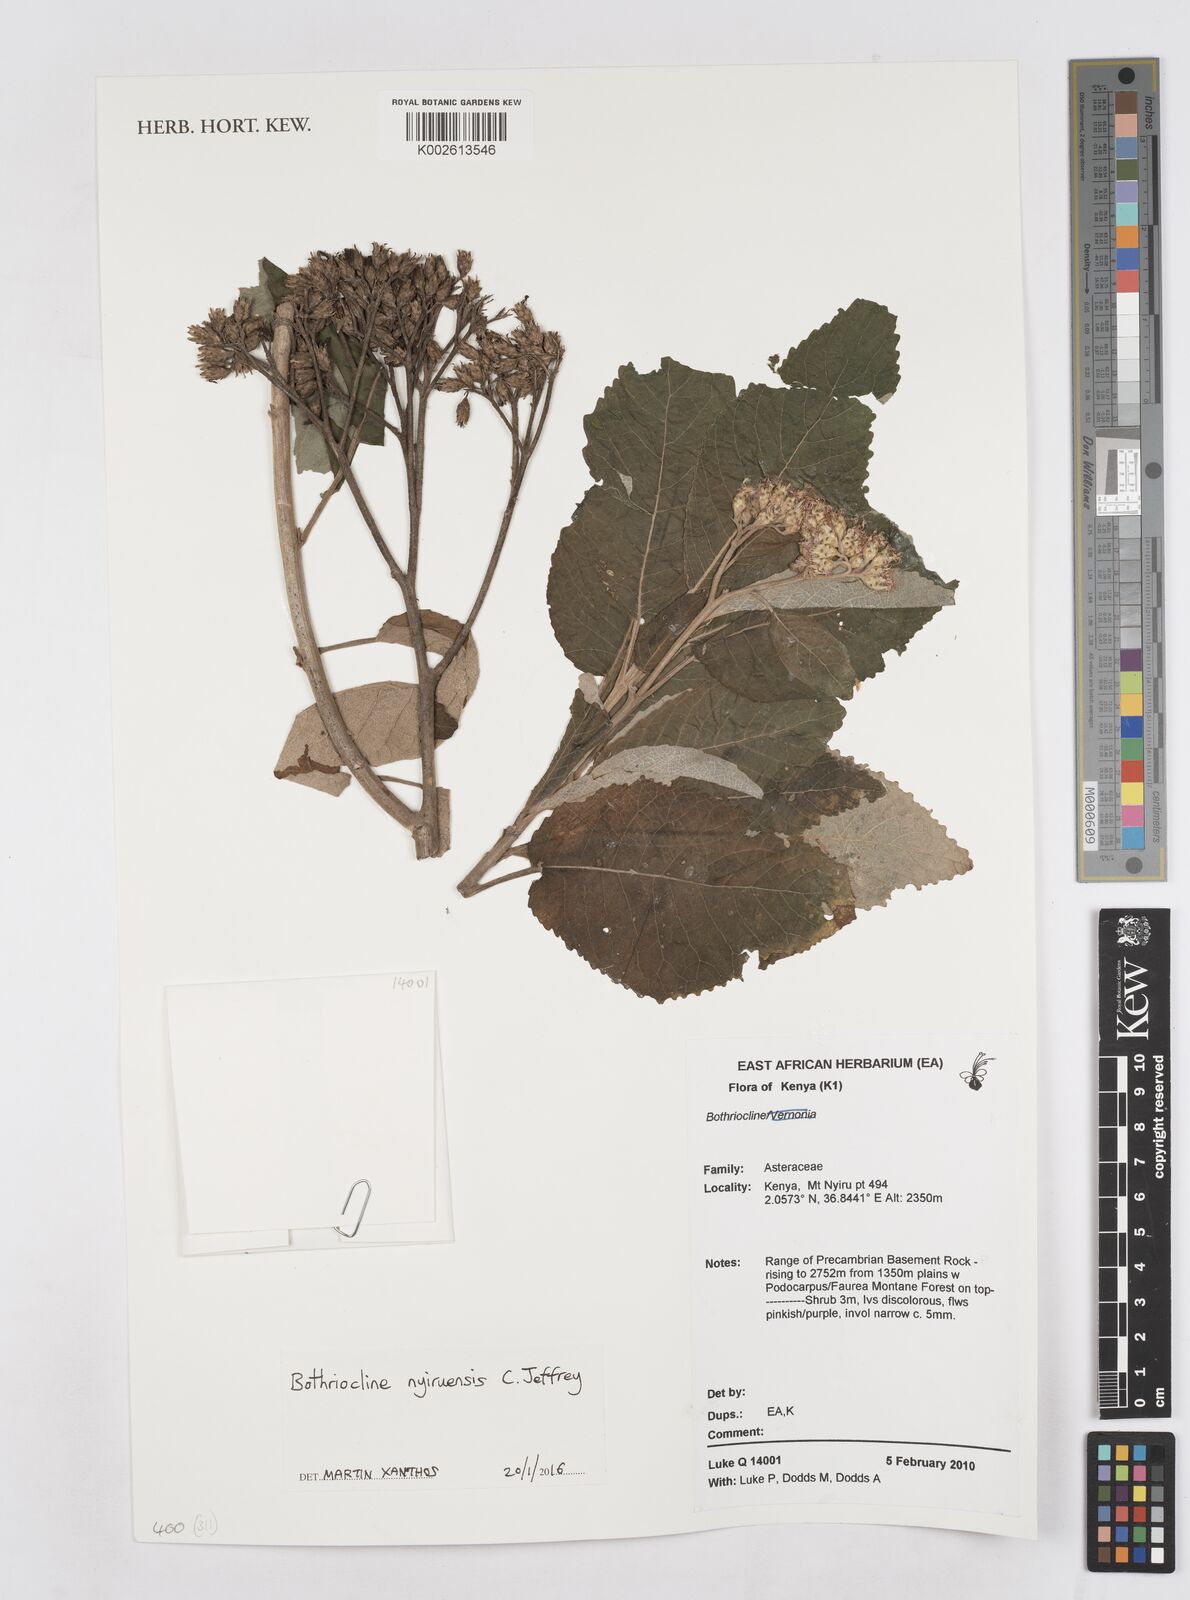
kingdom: Plantae
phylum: Tracheophyta
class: Magnoliopsida
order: Asterales
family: Asteraceae
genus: Bothriocline
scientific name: Bothriocline nyiruensis
